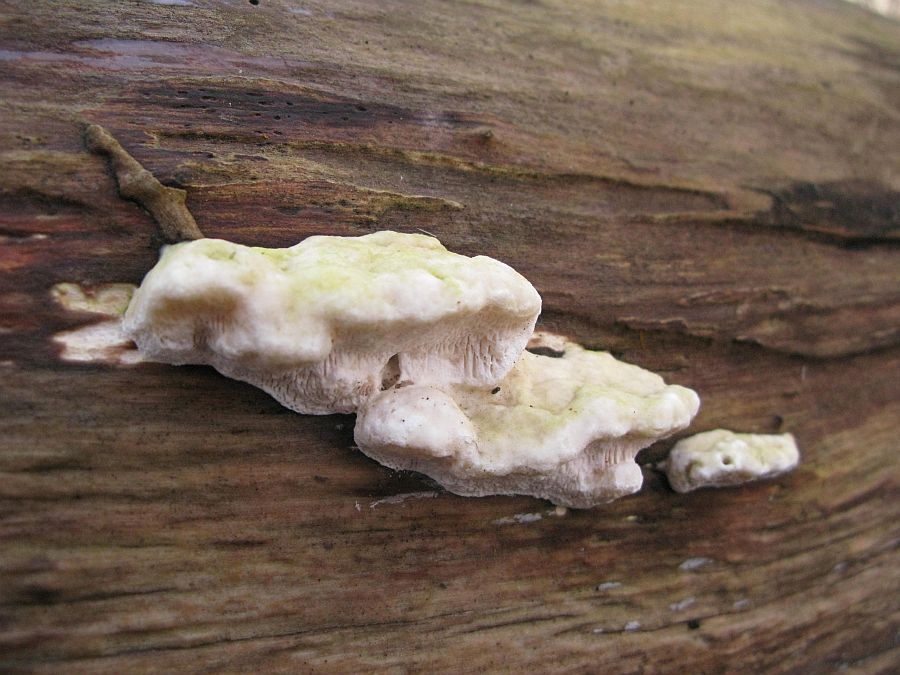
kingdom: Fungi
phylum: Basidiomycota
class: Agaricomycetes
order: Polyporales
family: Polyporaceae
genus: Trametes
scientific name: Trametes gibbosa
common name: puklet læderporesvamp
